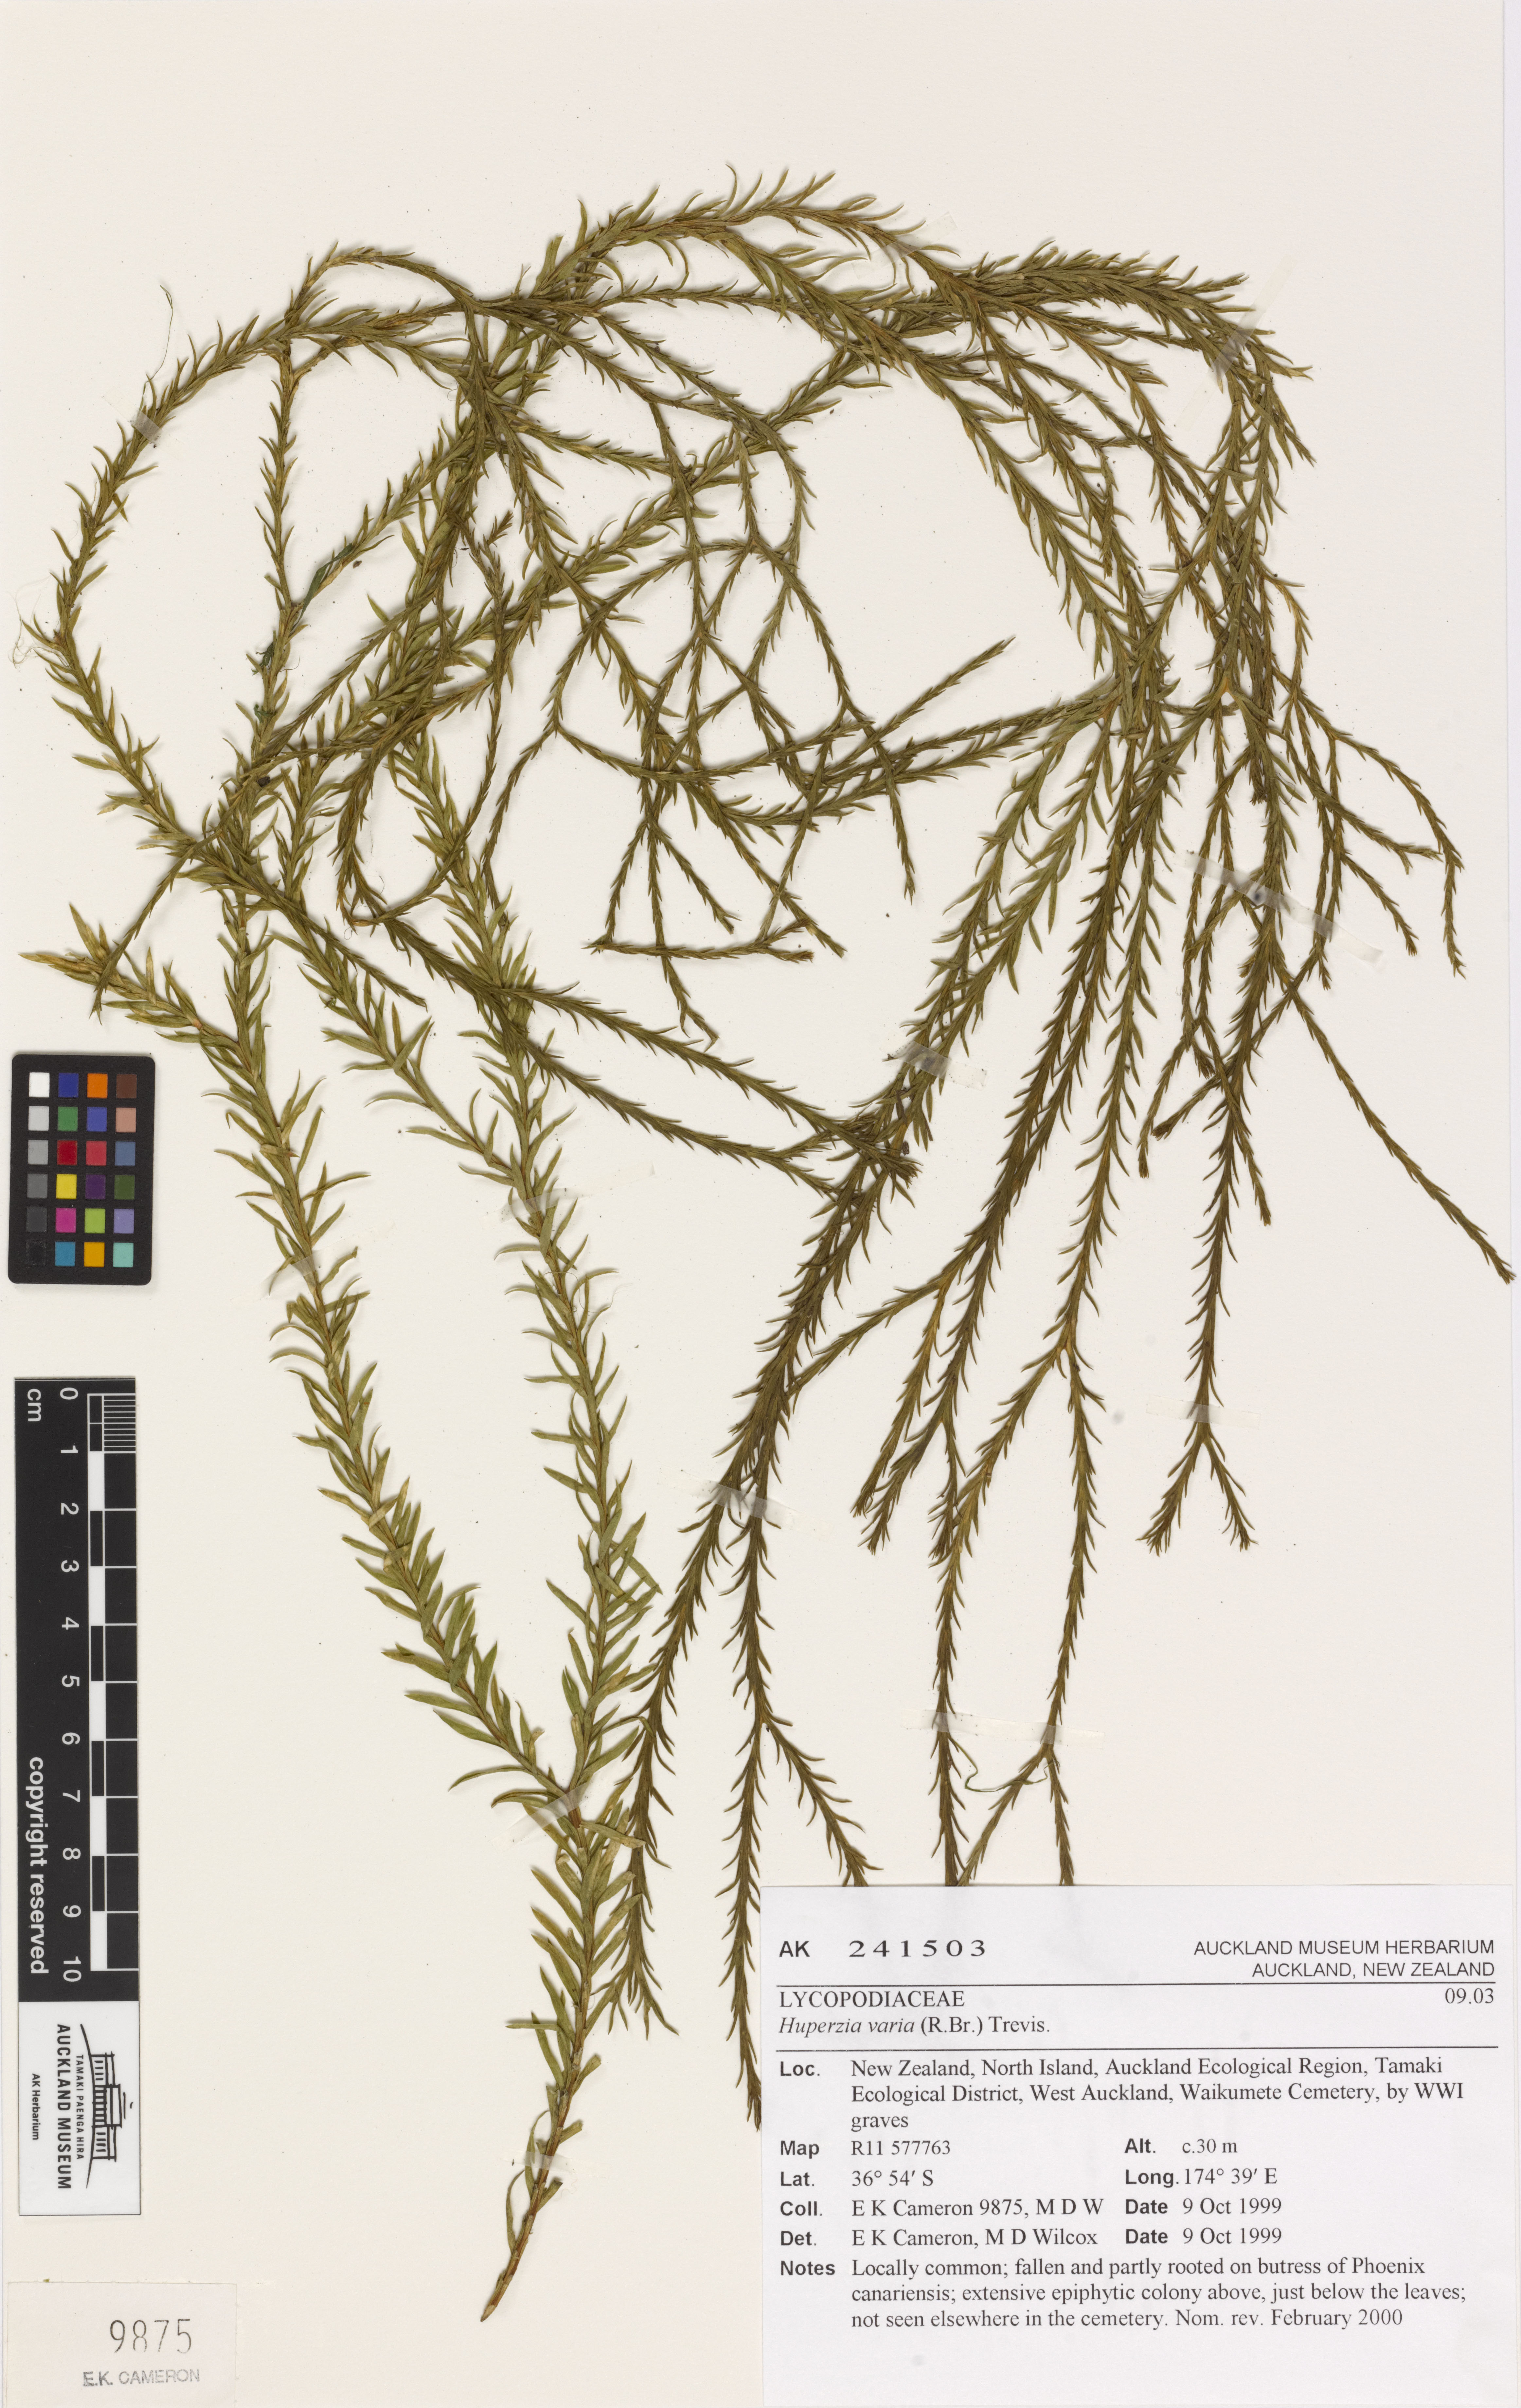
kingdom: Plantae
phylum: Tracheophyta
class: Lycopodiopsida
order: Lycopodiales
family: Lycopodiaceae
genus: Phlegmariurus
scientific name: Phlegmariurus
